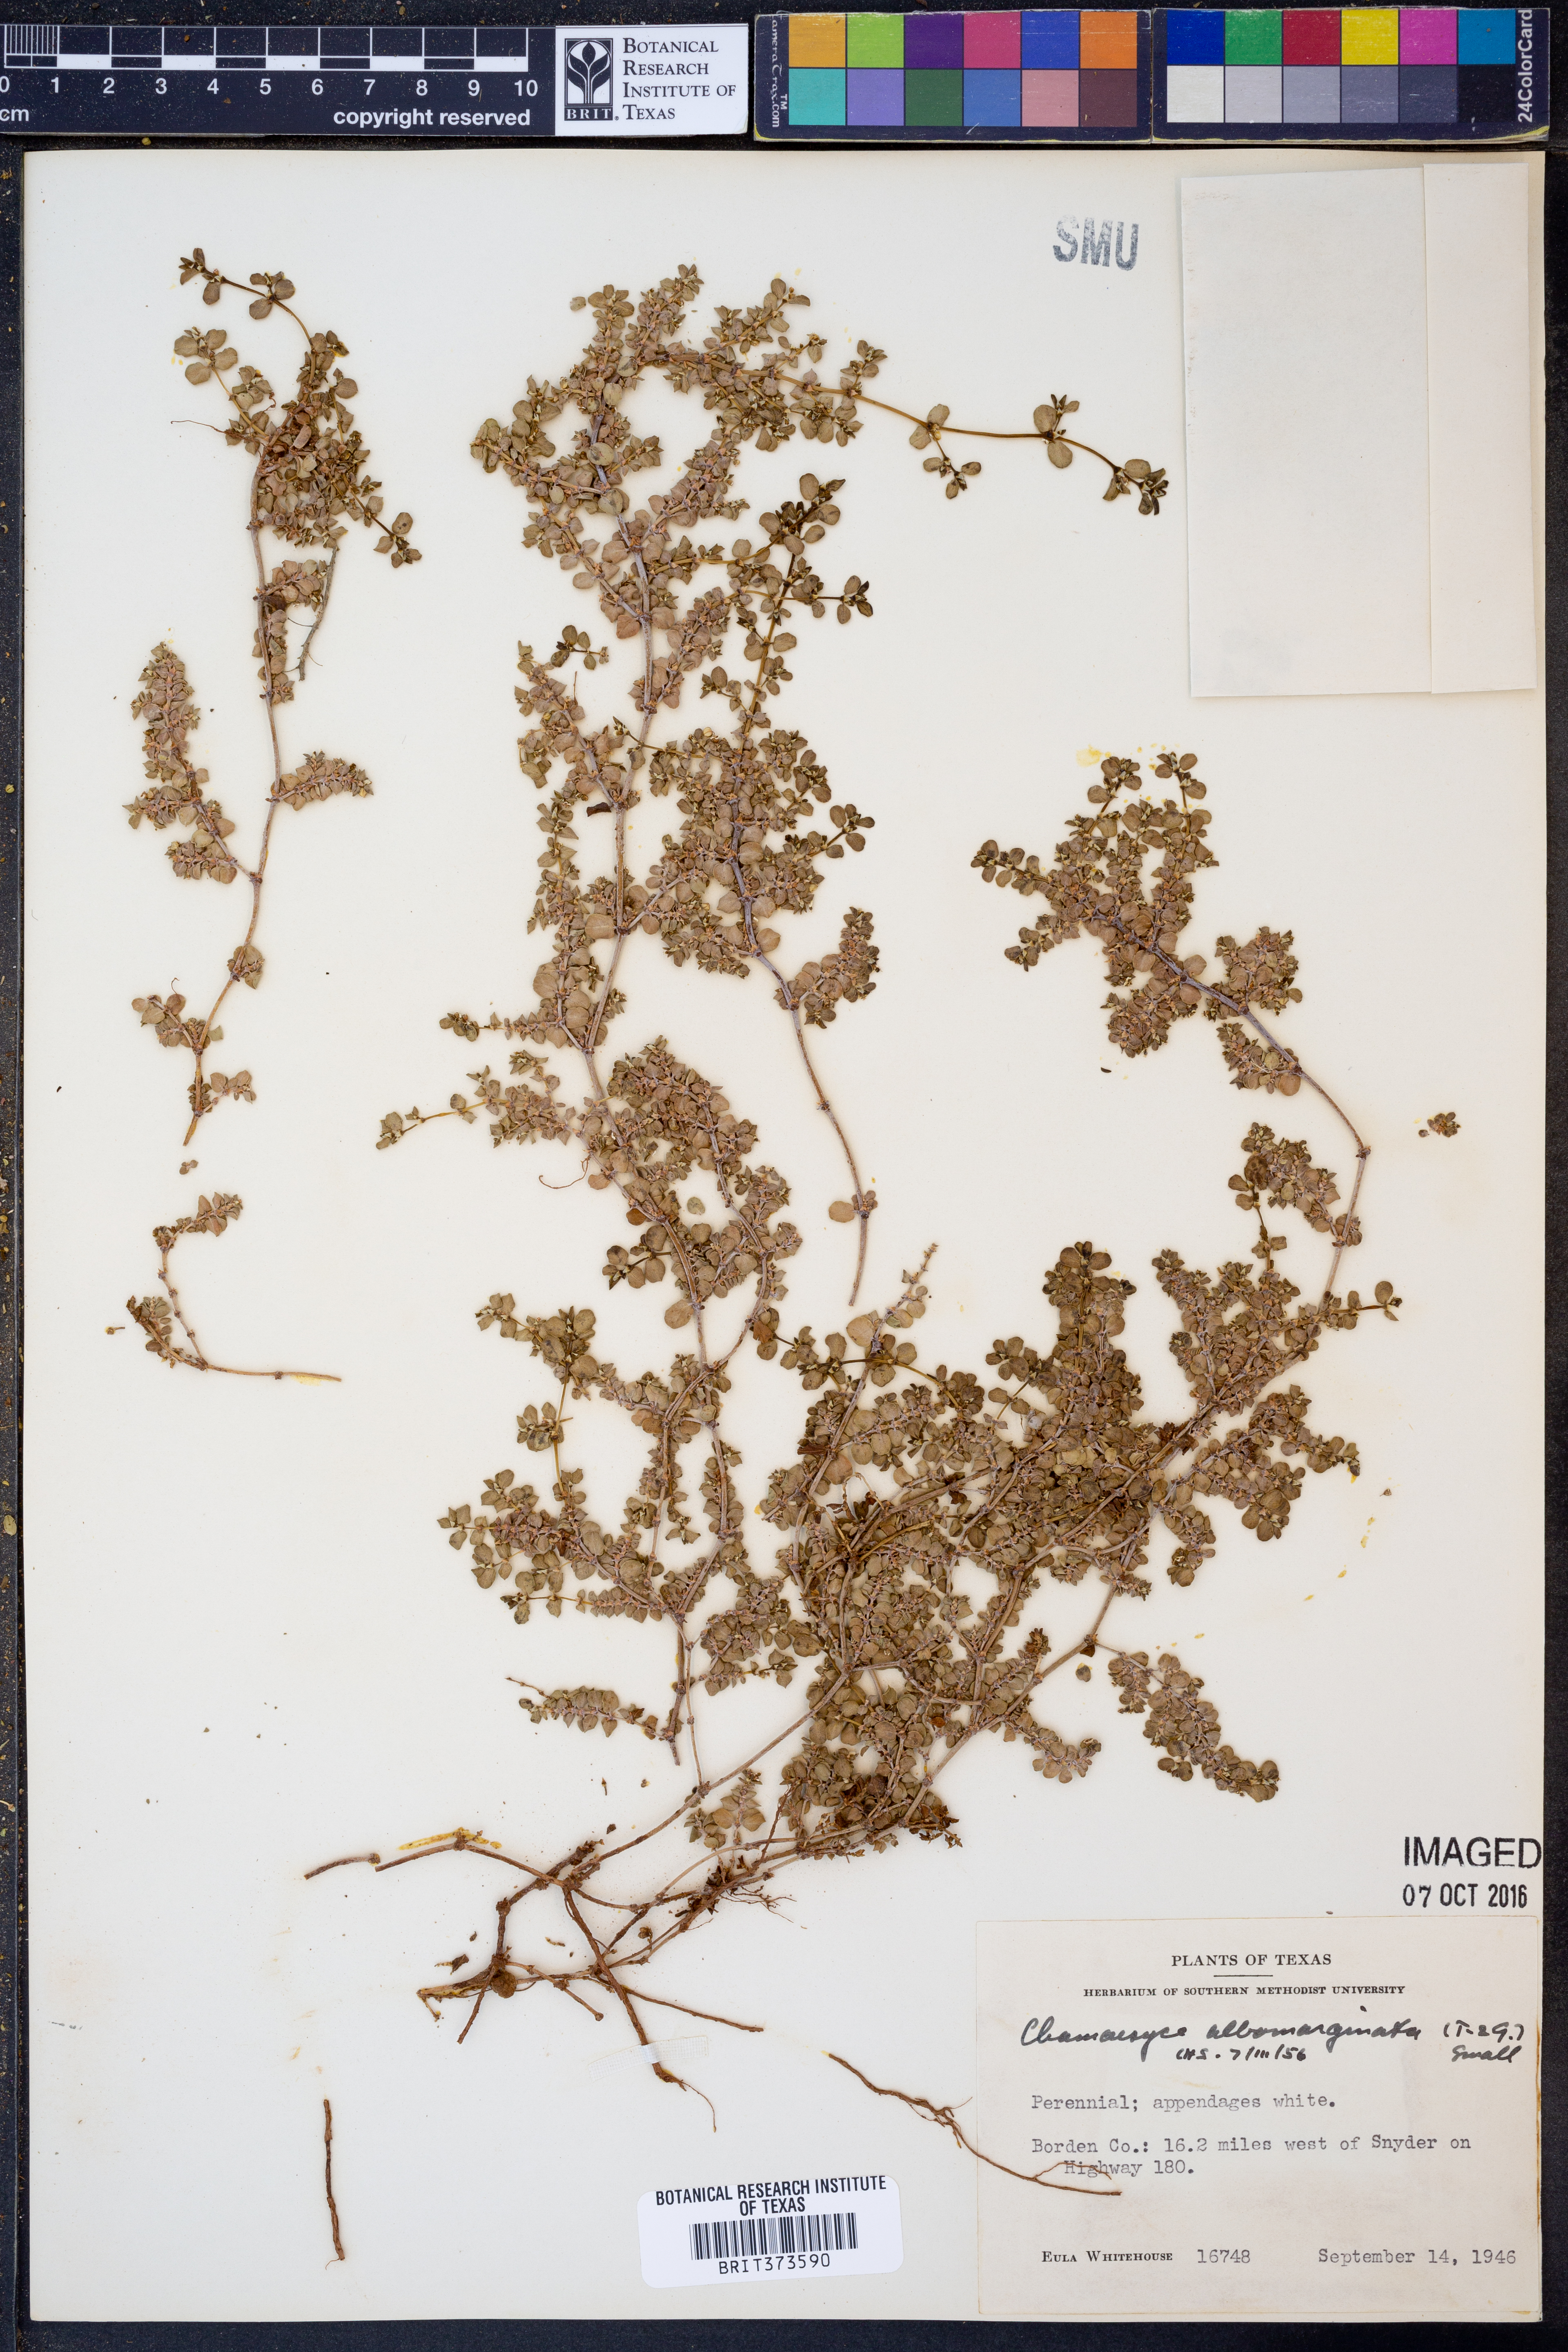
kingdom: Plantae
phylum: Tracheophyta
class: Magnoliopsida
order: Malpighiales
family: Euphorbiaceae
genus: Euphorbia
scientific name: Euphorbia albomarginata
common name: Whitemargin sandmat
